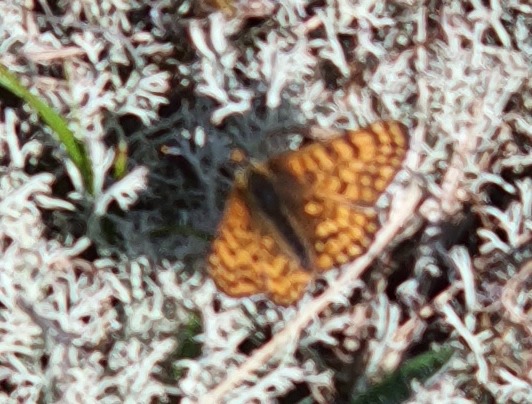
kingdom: Animalia
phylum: Arthropoda
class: Insecta
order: Lepidoptera
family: Nymphalidae
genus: Melitaea
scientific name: Melitaea cinxia
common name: Okkergul pletvinge
